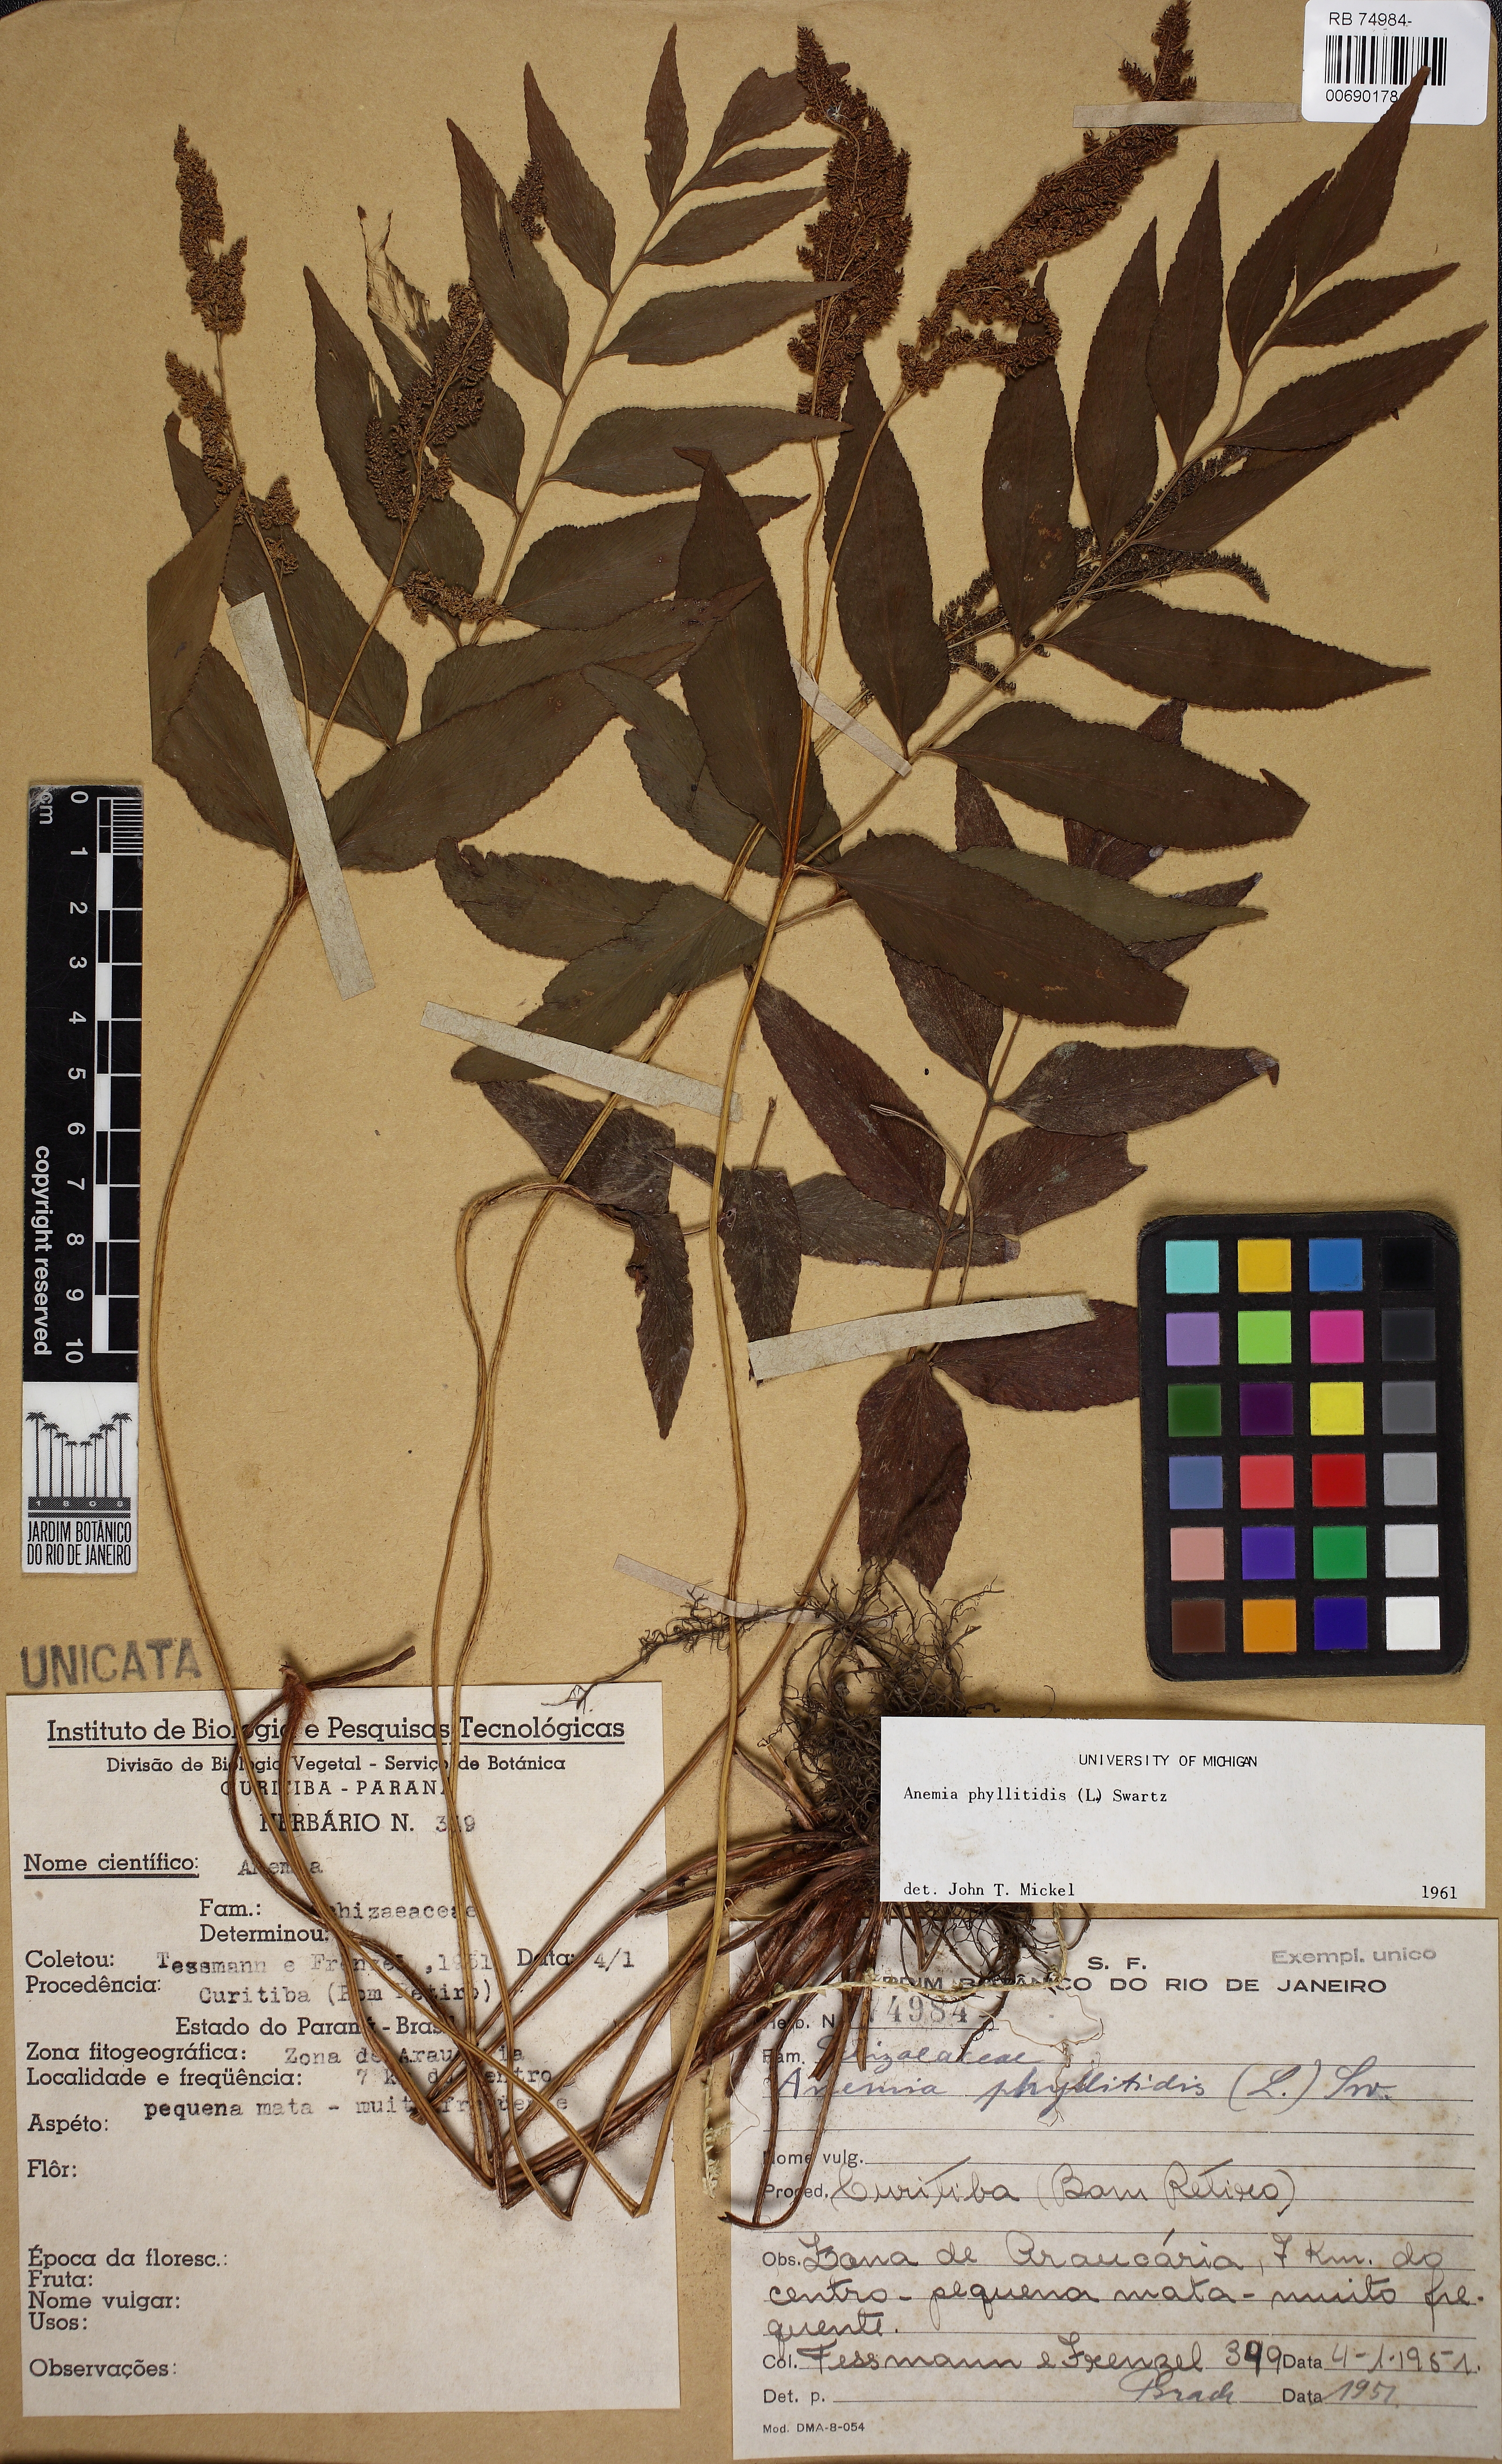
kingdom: Plantae
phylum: Tracheophyta
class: Polypodiopsida
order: Schizaeales
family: Anemiaceae
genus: Anemia
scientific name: Anemia phyllitidis
